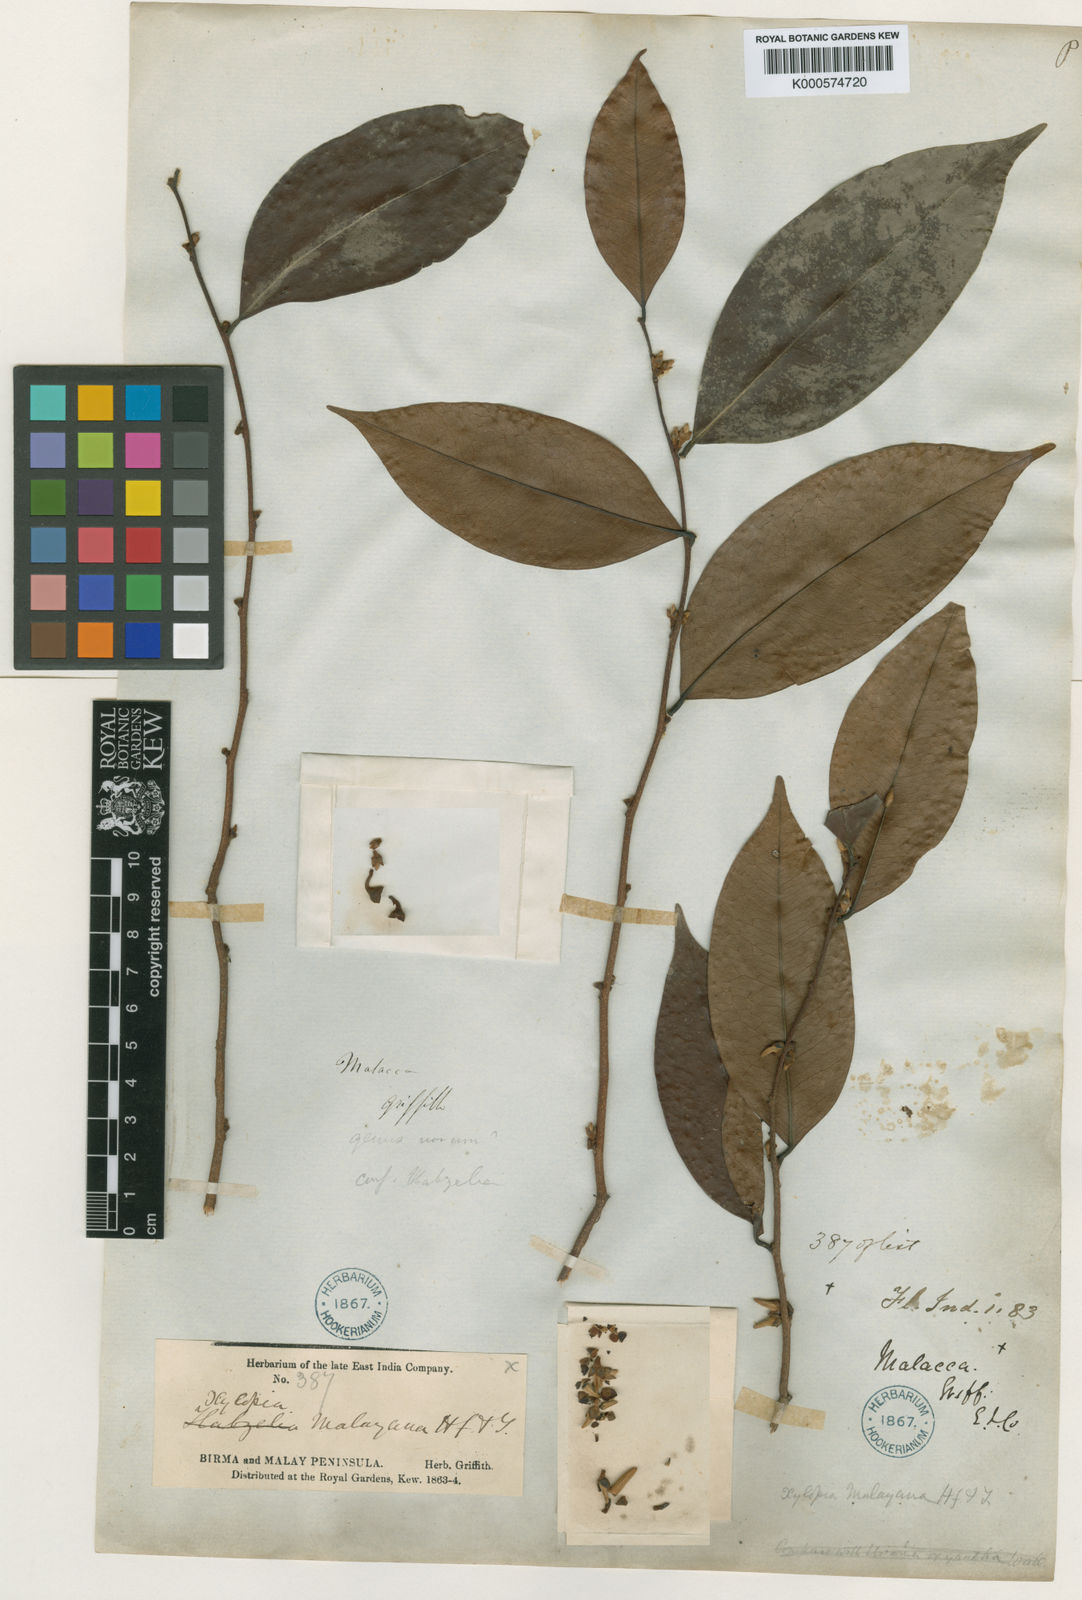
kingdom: Plantae
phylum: Tracheophyta
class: Magnoliopsida
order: Magnoliales
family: Annonaceae
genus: Xylopia
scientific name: Xylopia malayana
